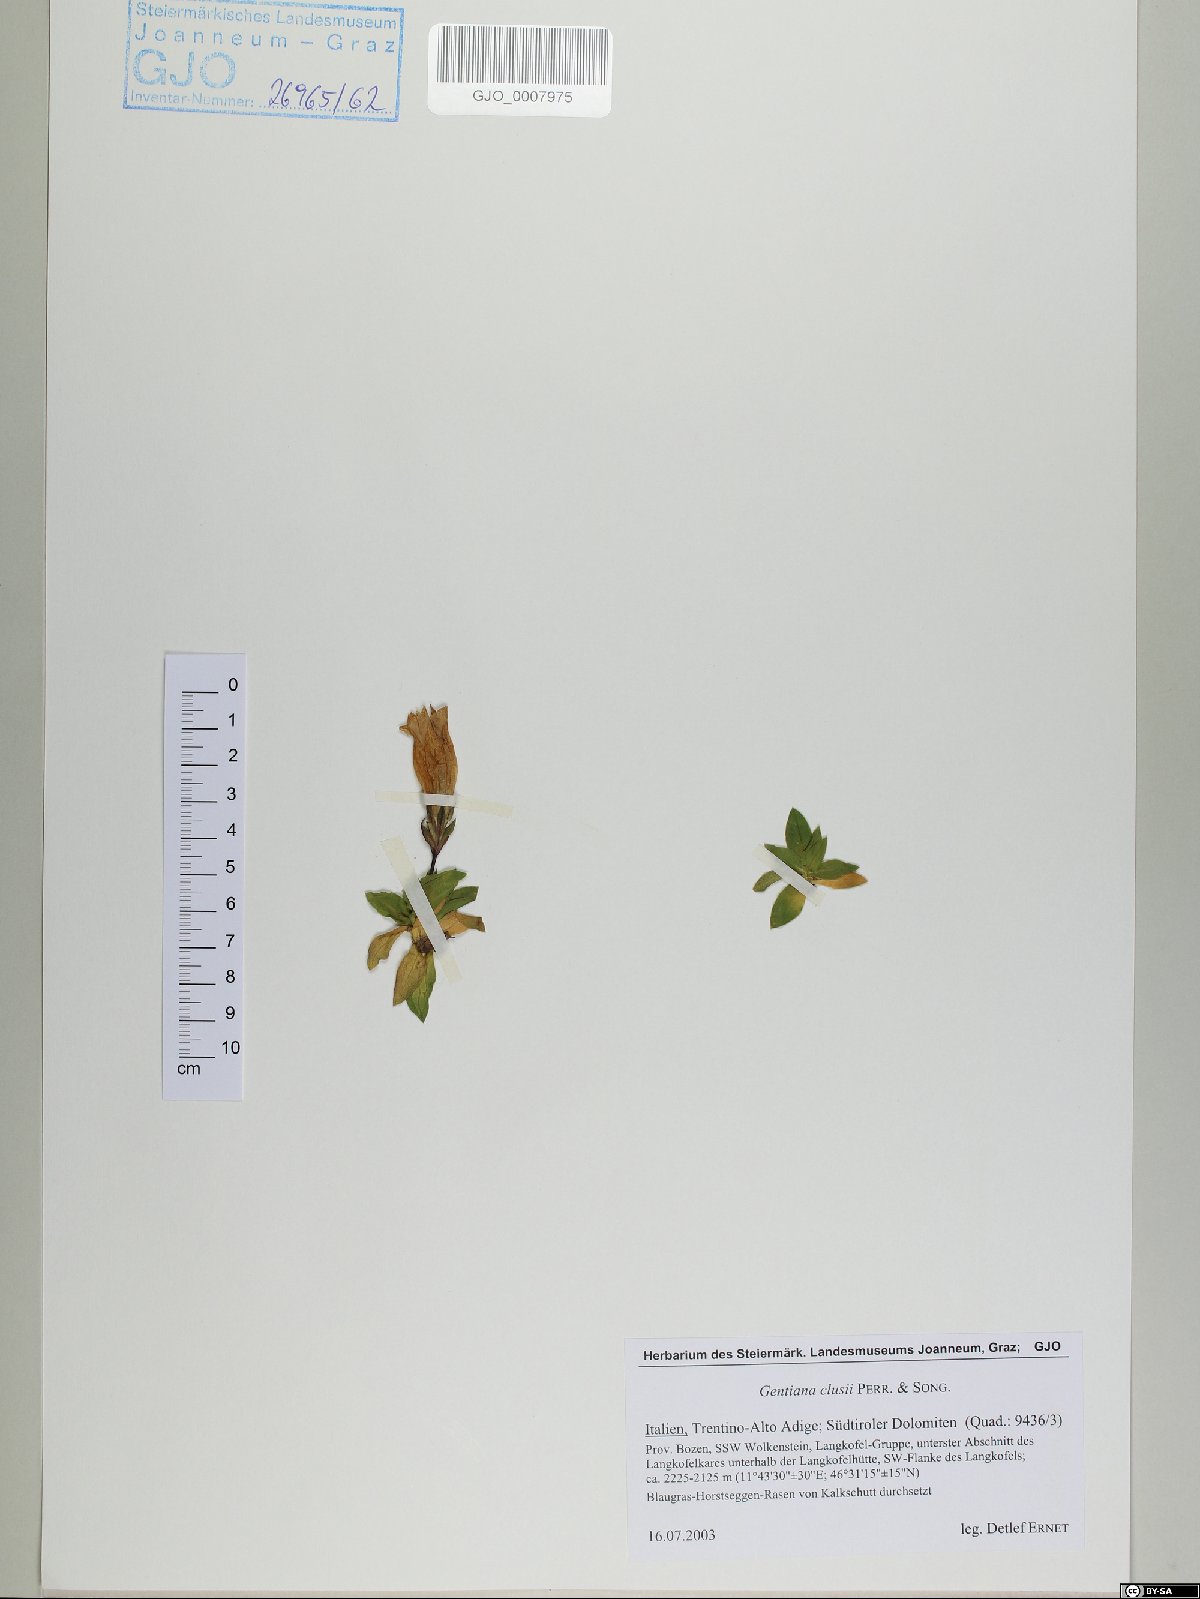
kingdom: Plantae
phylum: Tracheophyta
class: Magnoliopsida
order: Gentianales
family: Gentianaceae
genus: Gentiana
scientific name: Gentiana clusii
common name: Trumpet gentian
